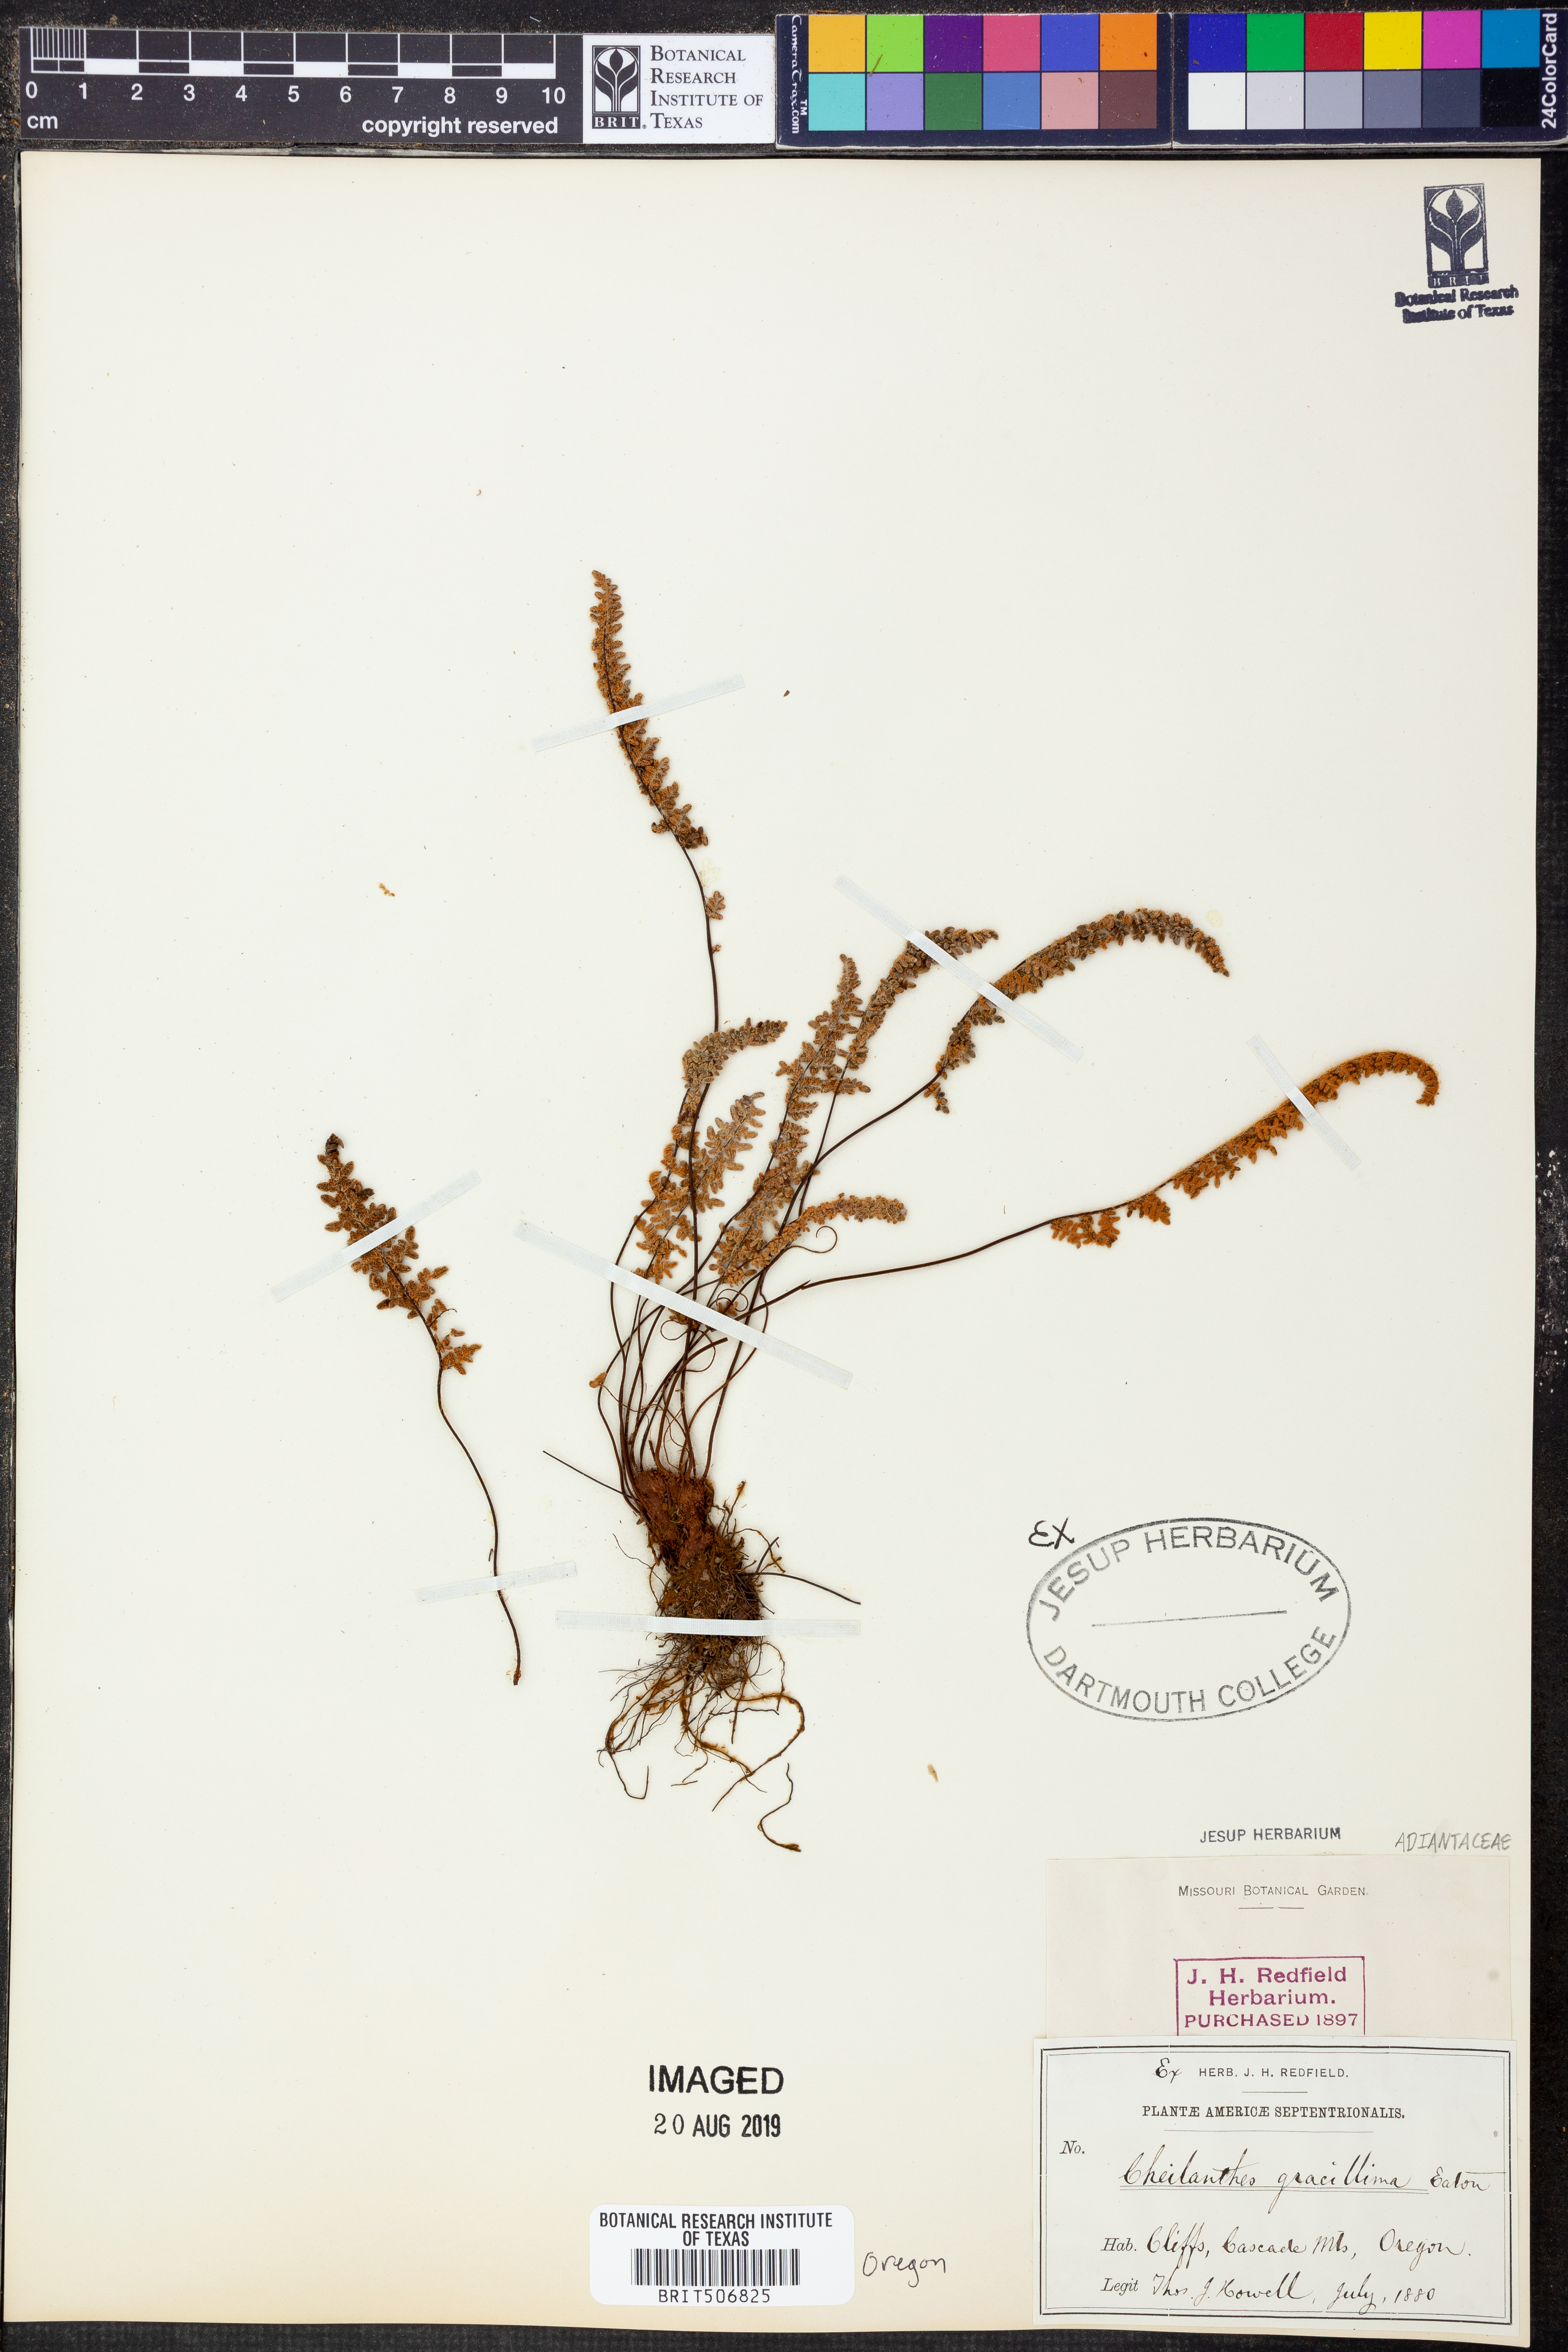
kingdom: Plantae
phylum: Tracheophyta
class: Polypodiopsida
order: Polypodiales
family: Pteridaceae
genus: Myriopteris
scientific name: Myriopteris gracillima
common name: Lace fern
